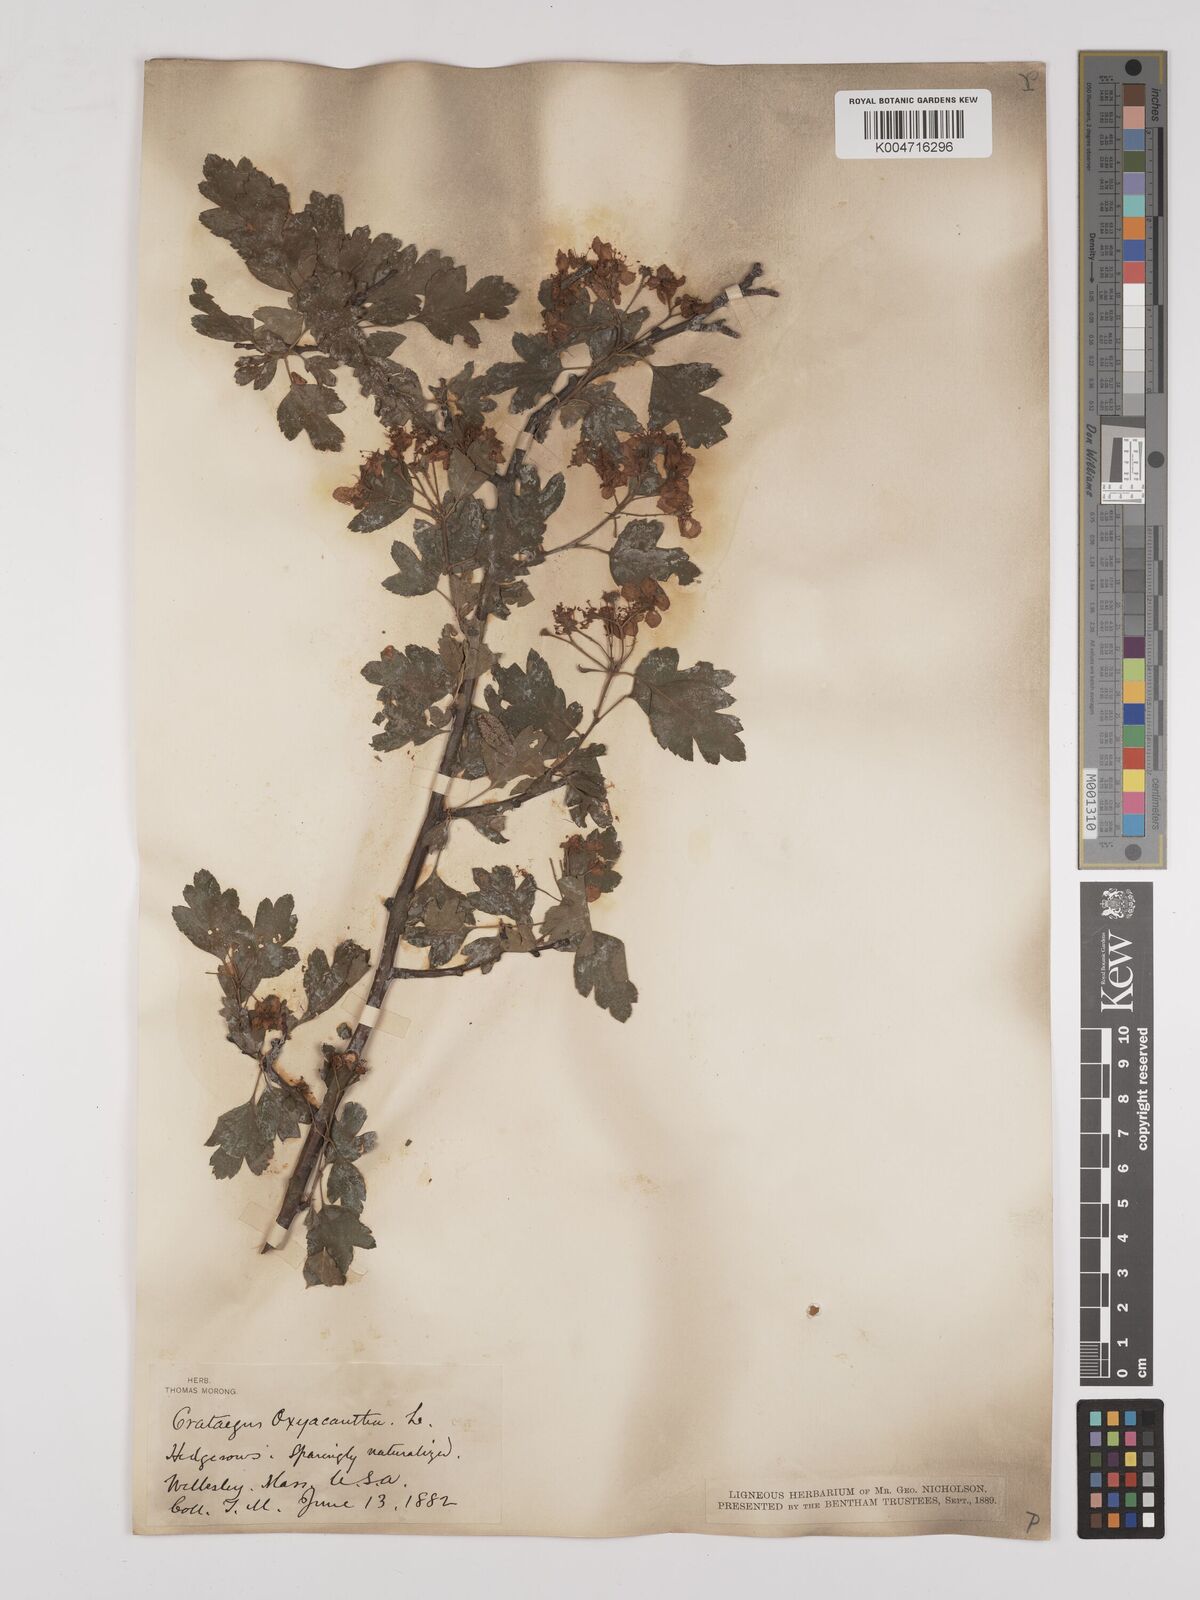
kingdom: Plantae
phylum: Tracheophyta
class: Magnoliopsida
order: Rosales
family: Rosaceae
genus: Crataegus
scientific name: Crataegus monogyna
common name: Hawthorn
